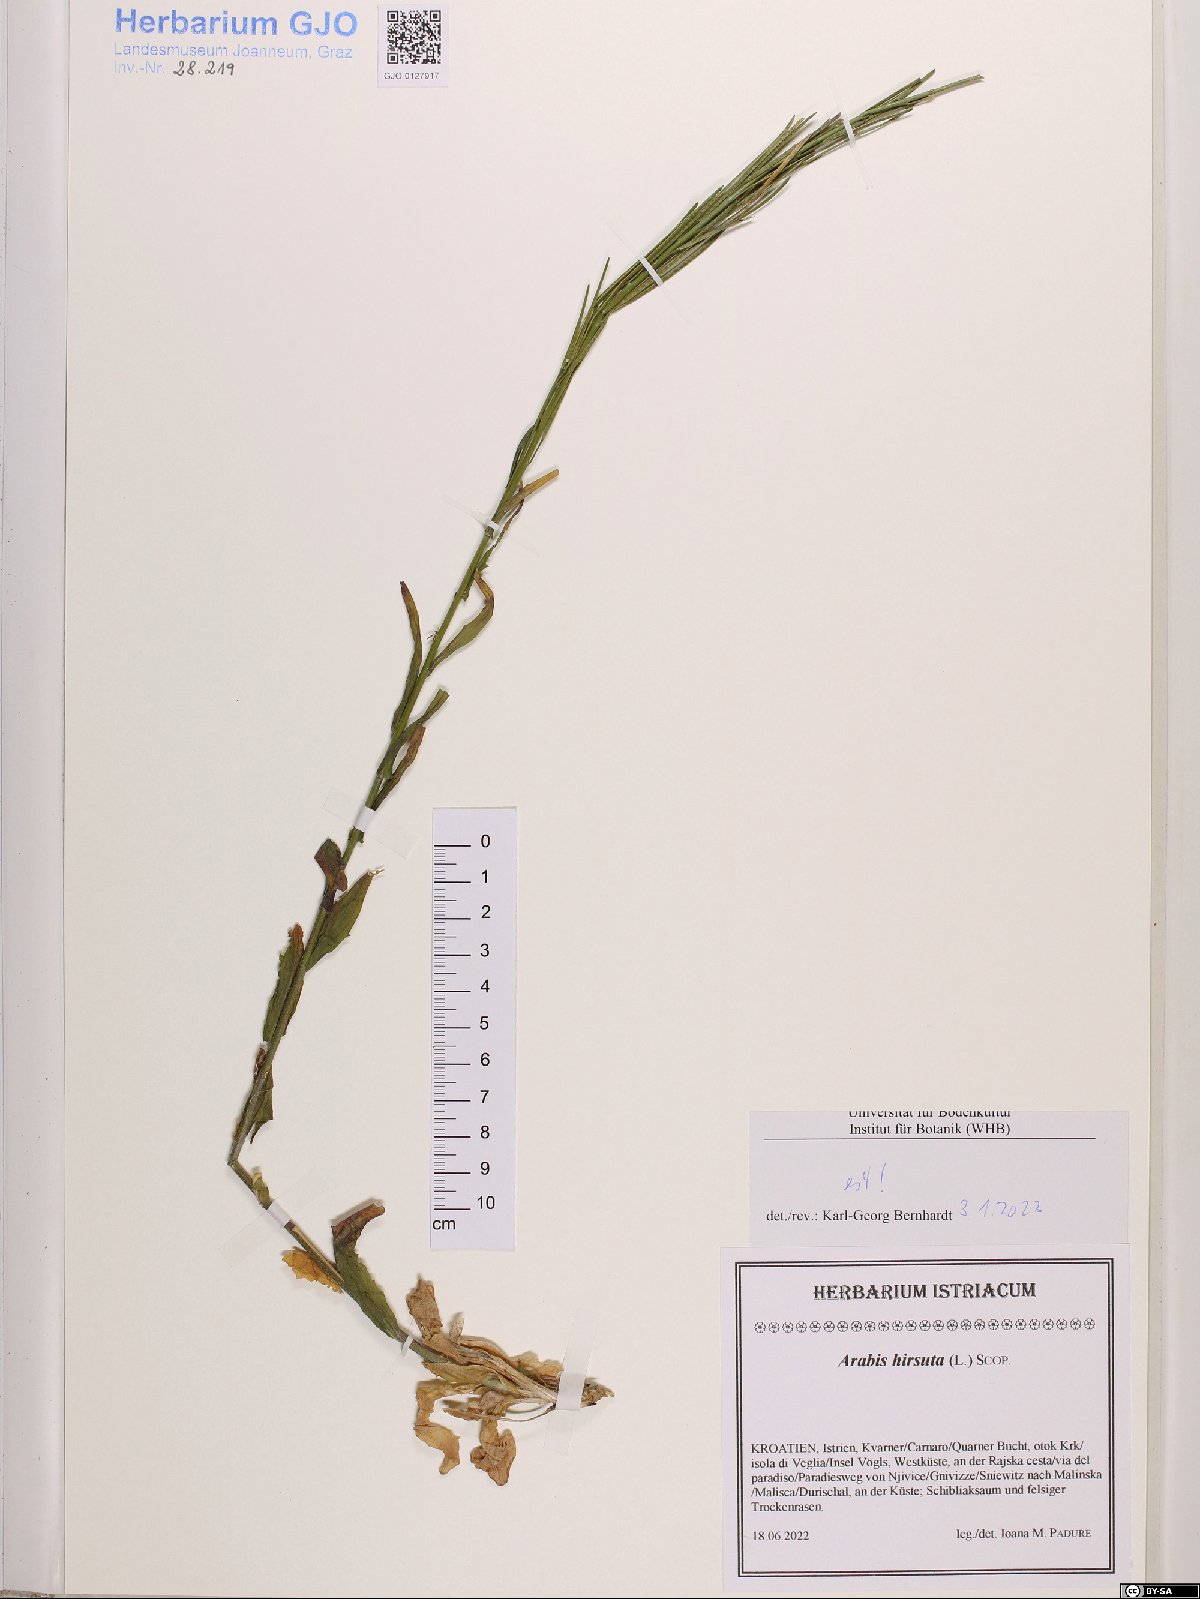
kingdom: Plantae
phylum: Tracheophyta
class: Magnoliopsida
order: Brassicales
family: Brassicaceae
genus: Arabis
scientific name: Arabis hirsuta
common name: Hairy rock-cress
